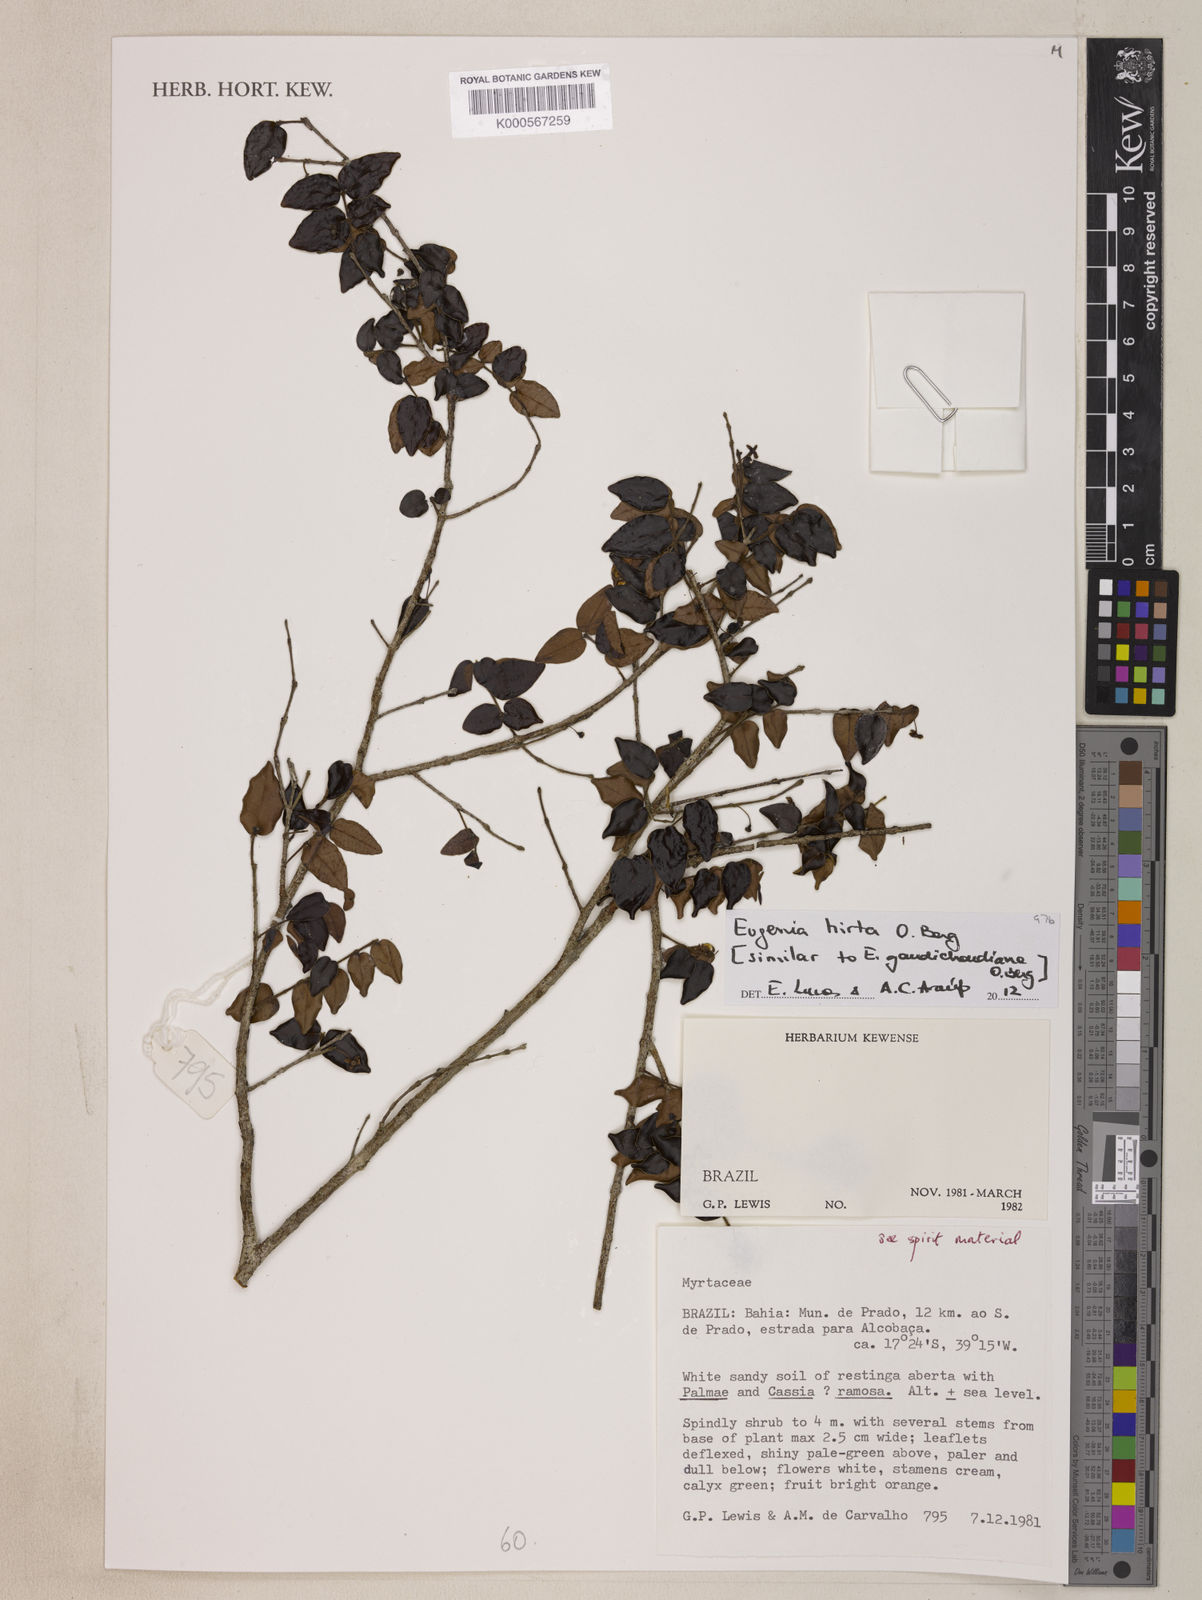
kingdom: Plantae
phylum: Tracheophyta
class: Magnoliopsida
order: Myrtales
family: Myrtaceae
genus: Eugenia
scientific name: Eugenia hirta
